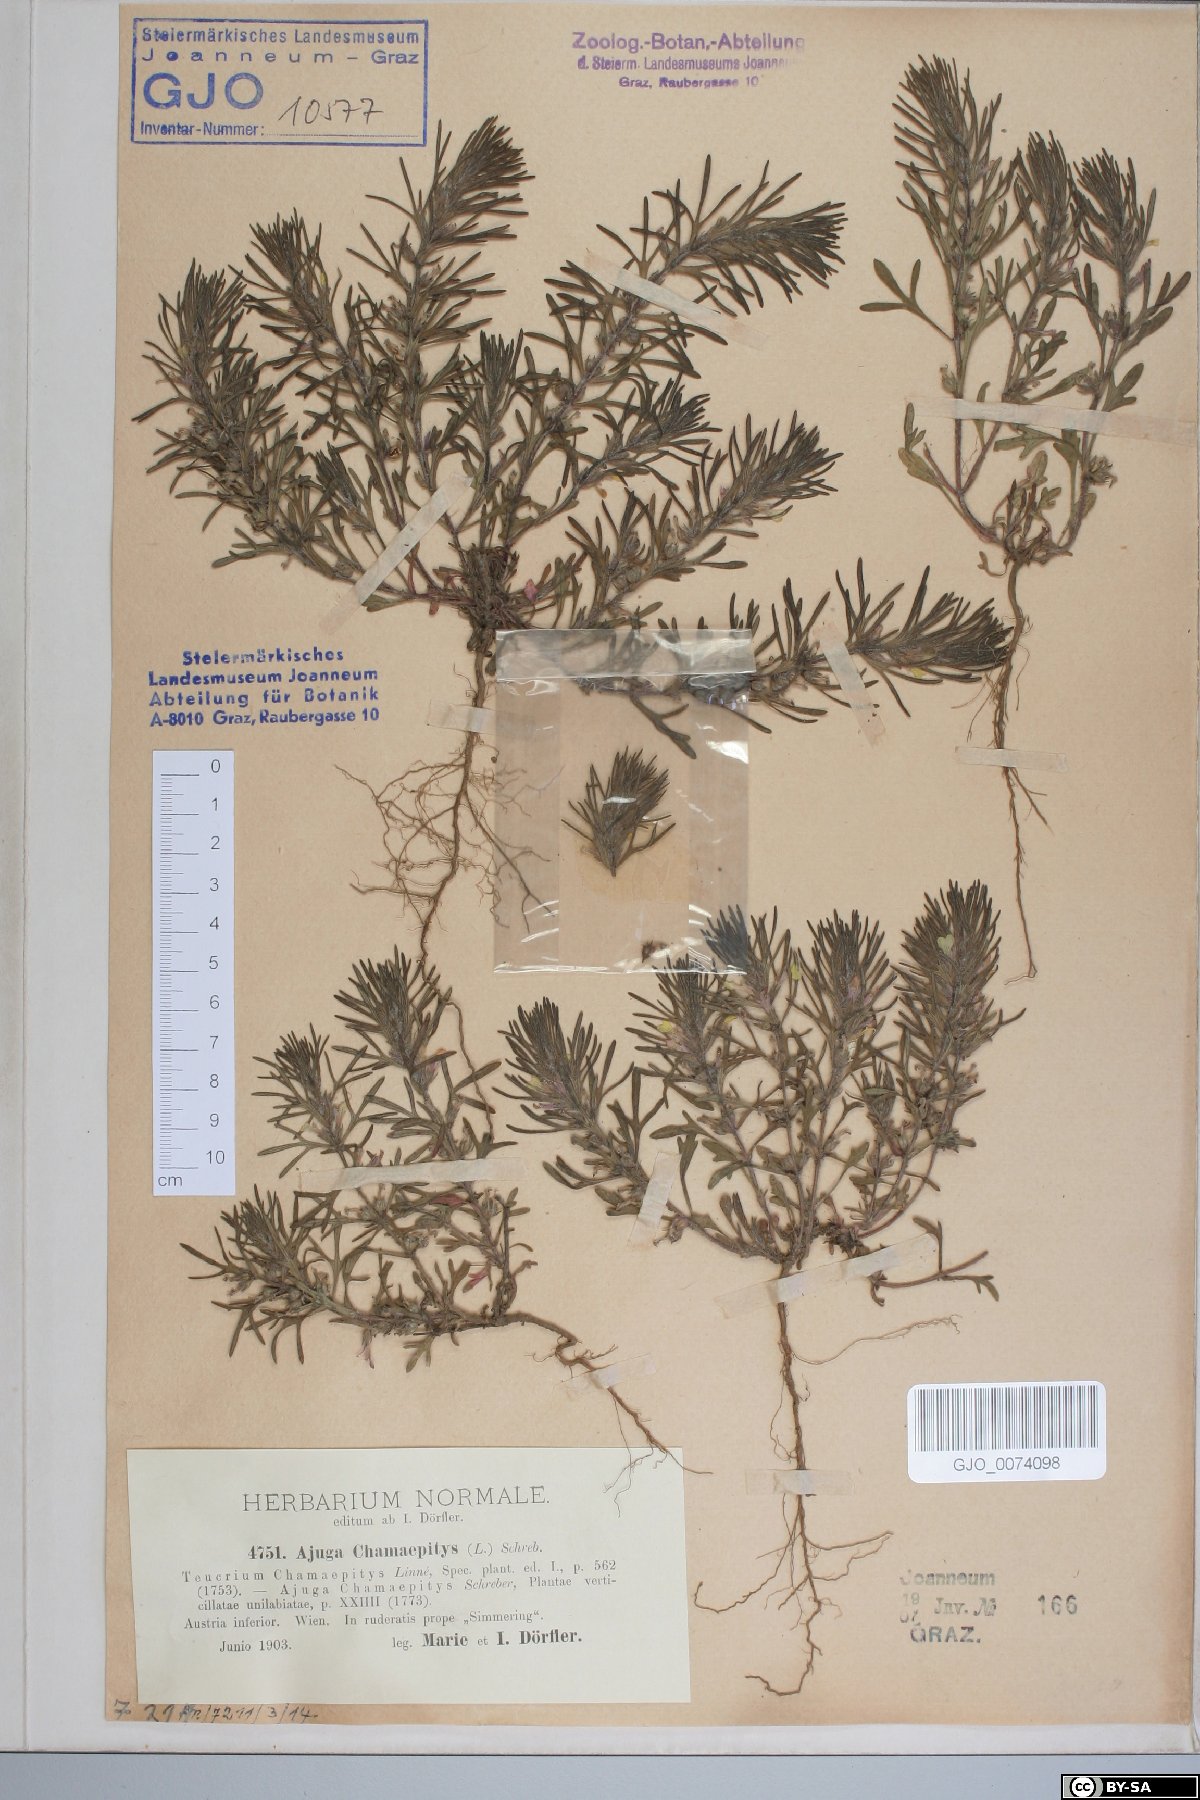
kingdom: Plantae
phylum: Tracheophyta
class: Magnoliopsida
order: Lamiales
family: Lamiaceae
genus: Ajuga
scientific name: Ajuga chamaepitys
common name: Ground-pine
